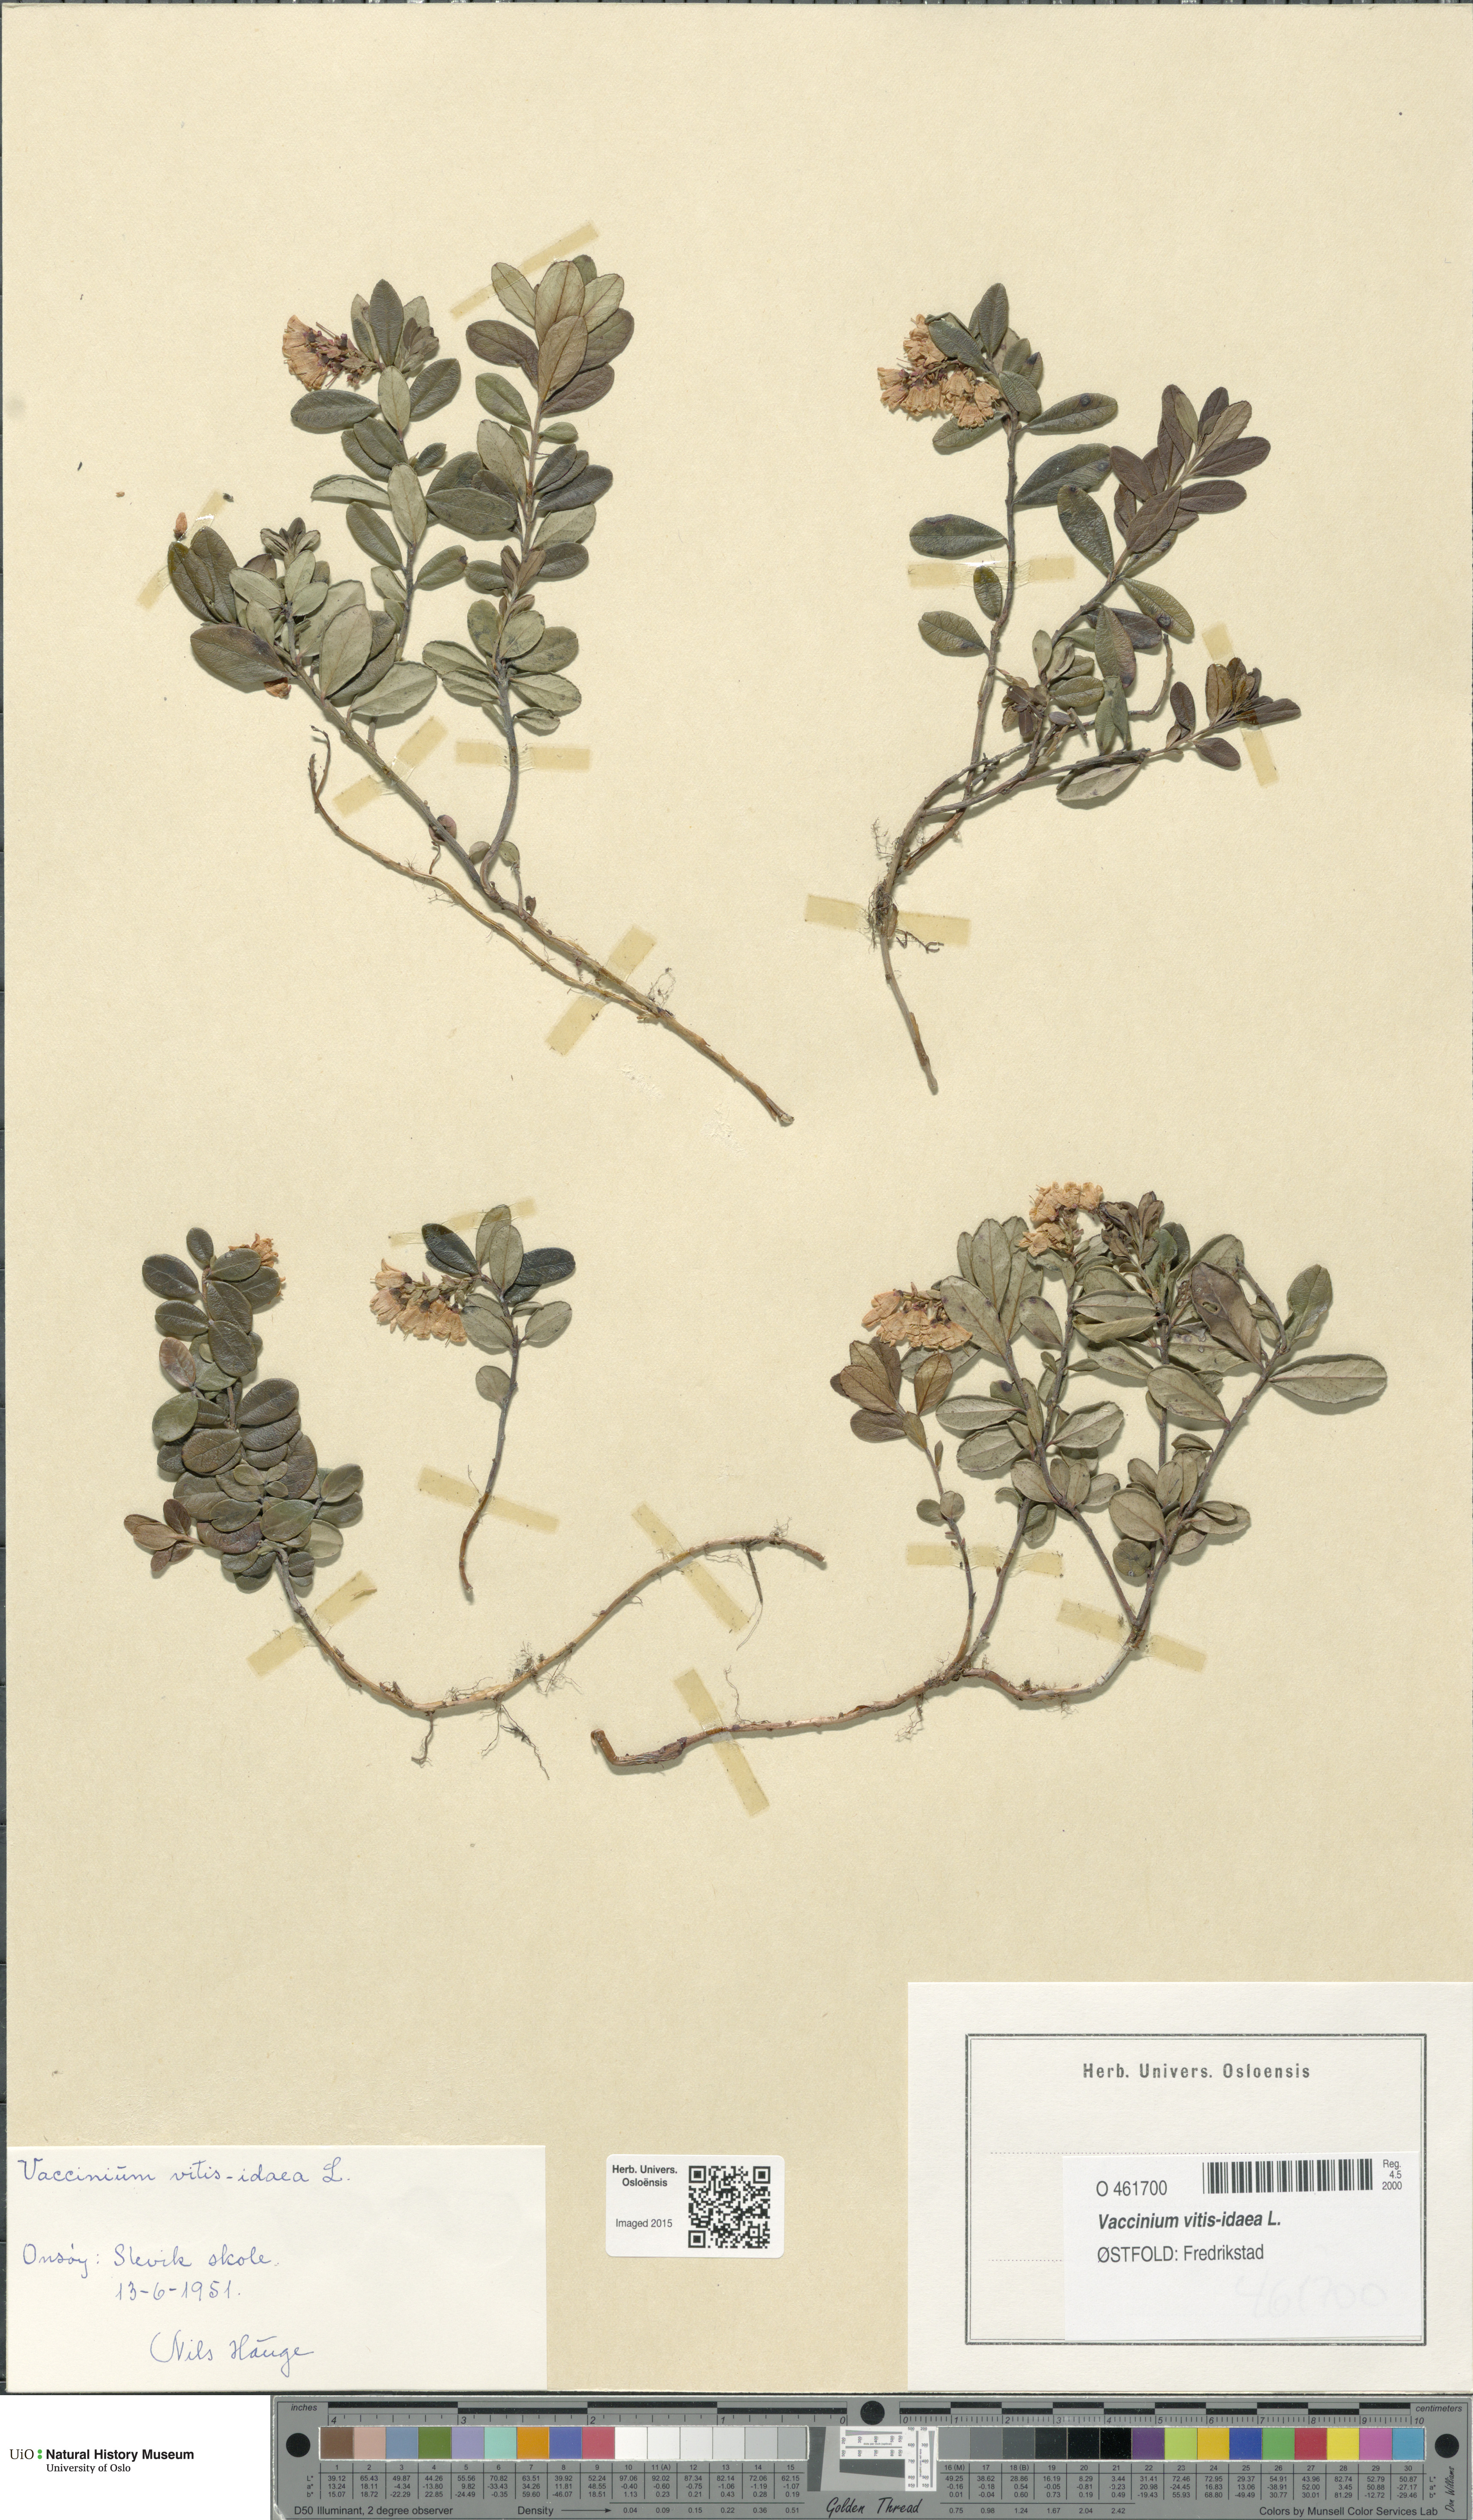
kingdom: Plantae
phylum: Tracheophyta
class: Magnoliopsida
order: Ericales
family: Ericaceae
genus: Vaccinium
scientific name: Vaccinium vitis-idaea
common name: Cowberry
